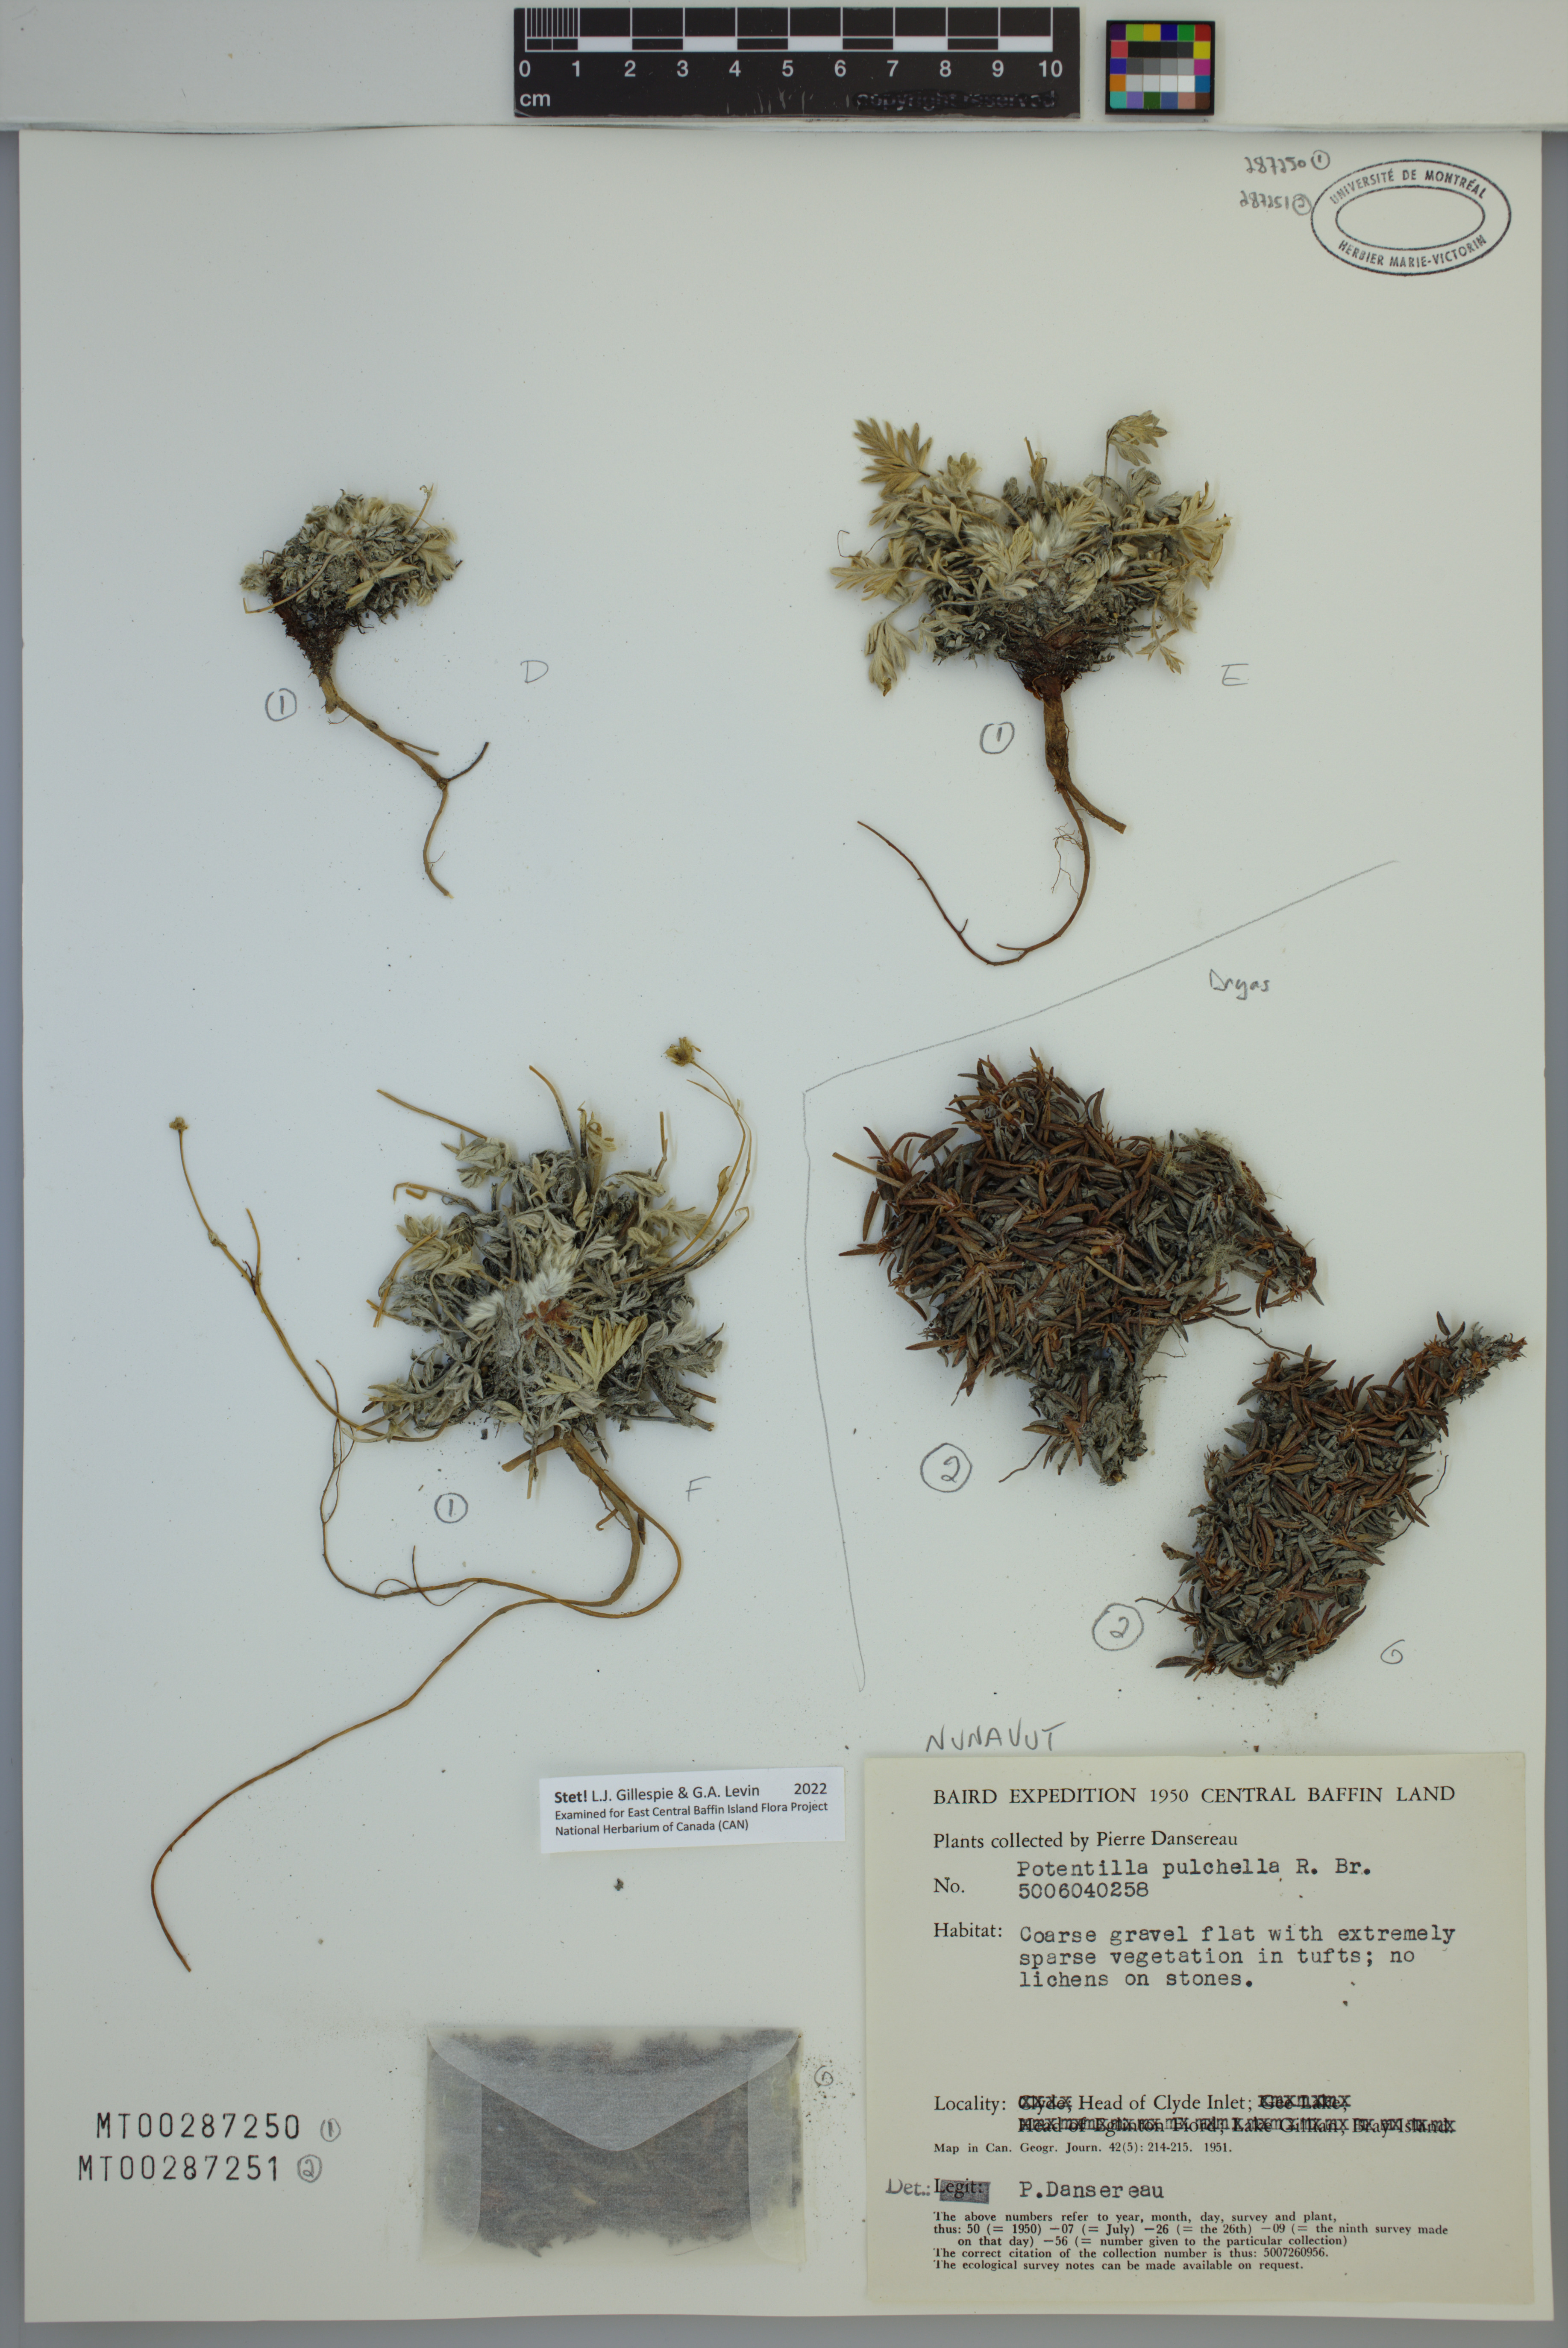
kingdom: Plantae
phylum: Tracheophyta
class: Magnoliopsida
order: Rosales
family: Rosaceae
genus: Potentilla
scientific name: Potentilla pulchella
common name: Pretty cinquefoil
